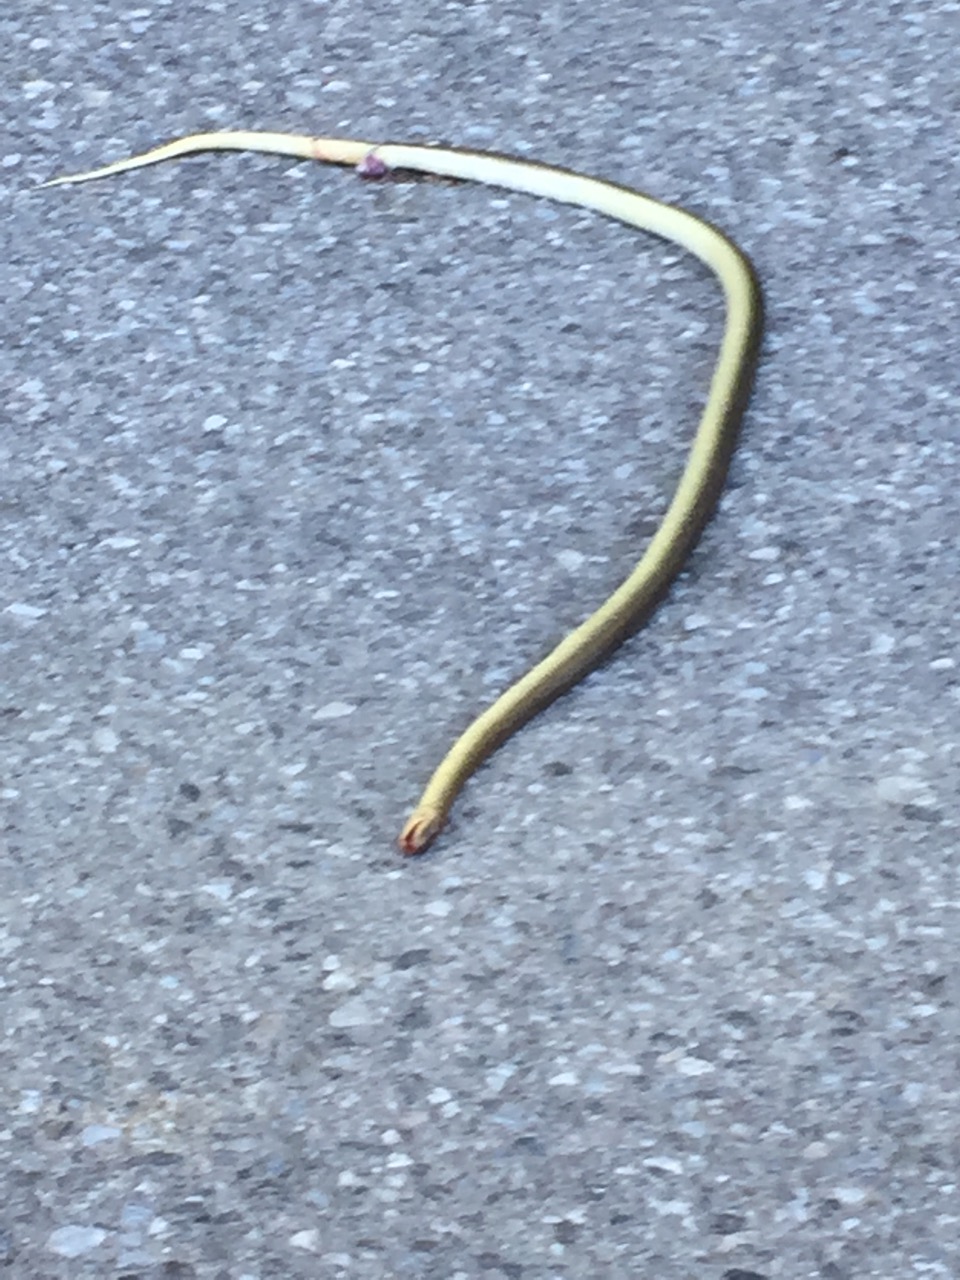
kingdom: Animalia
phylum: Chordata
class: Squamata
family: Colubridae
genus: Zamenis
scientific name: Zamenis longissimus
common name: Aesculapean snake
